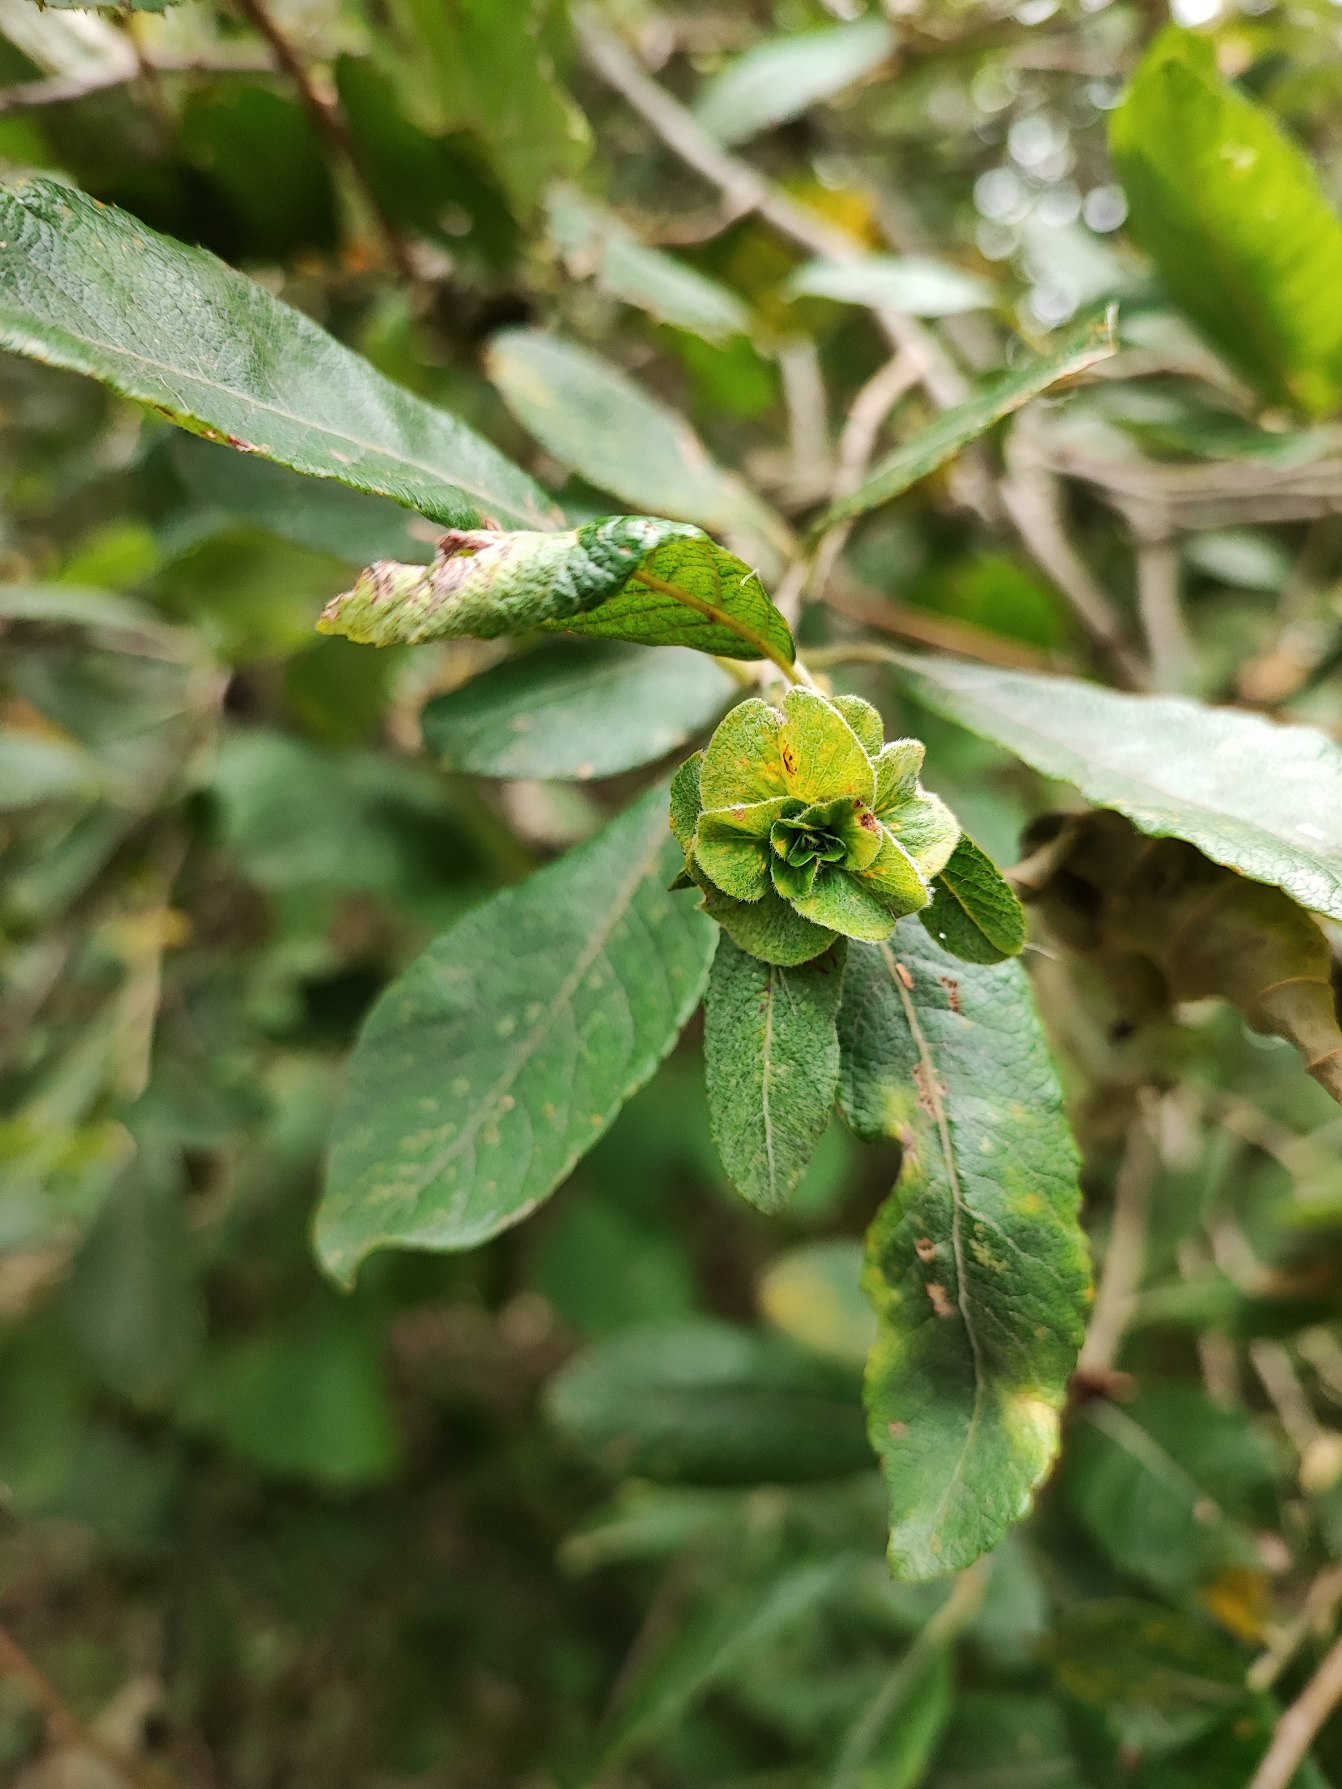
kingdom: Animalia
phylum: Arthropoda
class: Insecta
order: Diptera
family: Cecidomyiidae
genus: Rabdophaga
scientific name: Rabdophaga rosaria
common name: Pilerosetgalmyg
